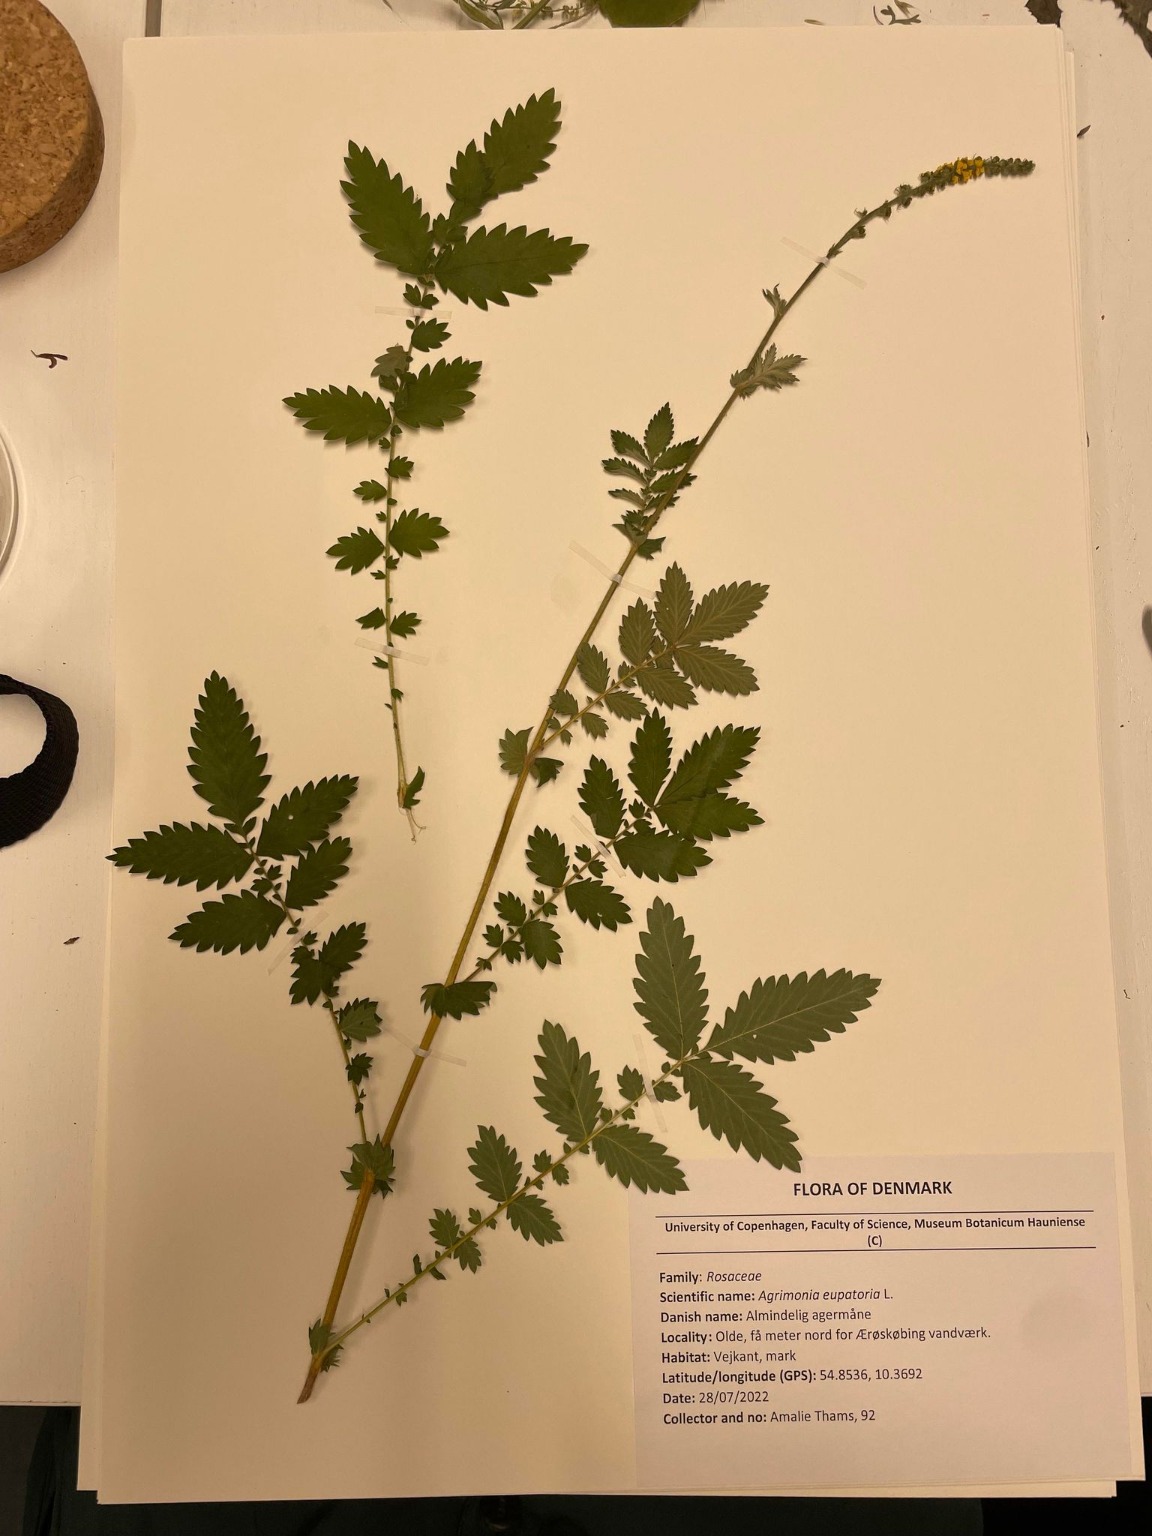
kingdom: Plantae
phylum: Tracheophyta
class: Magnoliopsida
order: Rosales
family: Rosaceae
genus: Agrimonia
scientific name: Agrimonia eupatoria
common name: Almindelig agermåne
